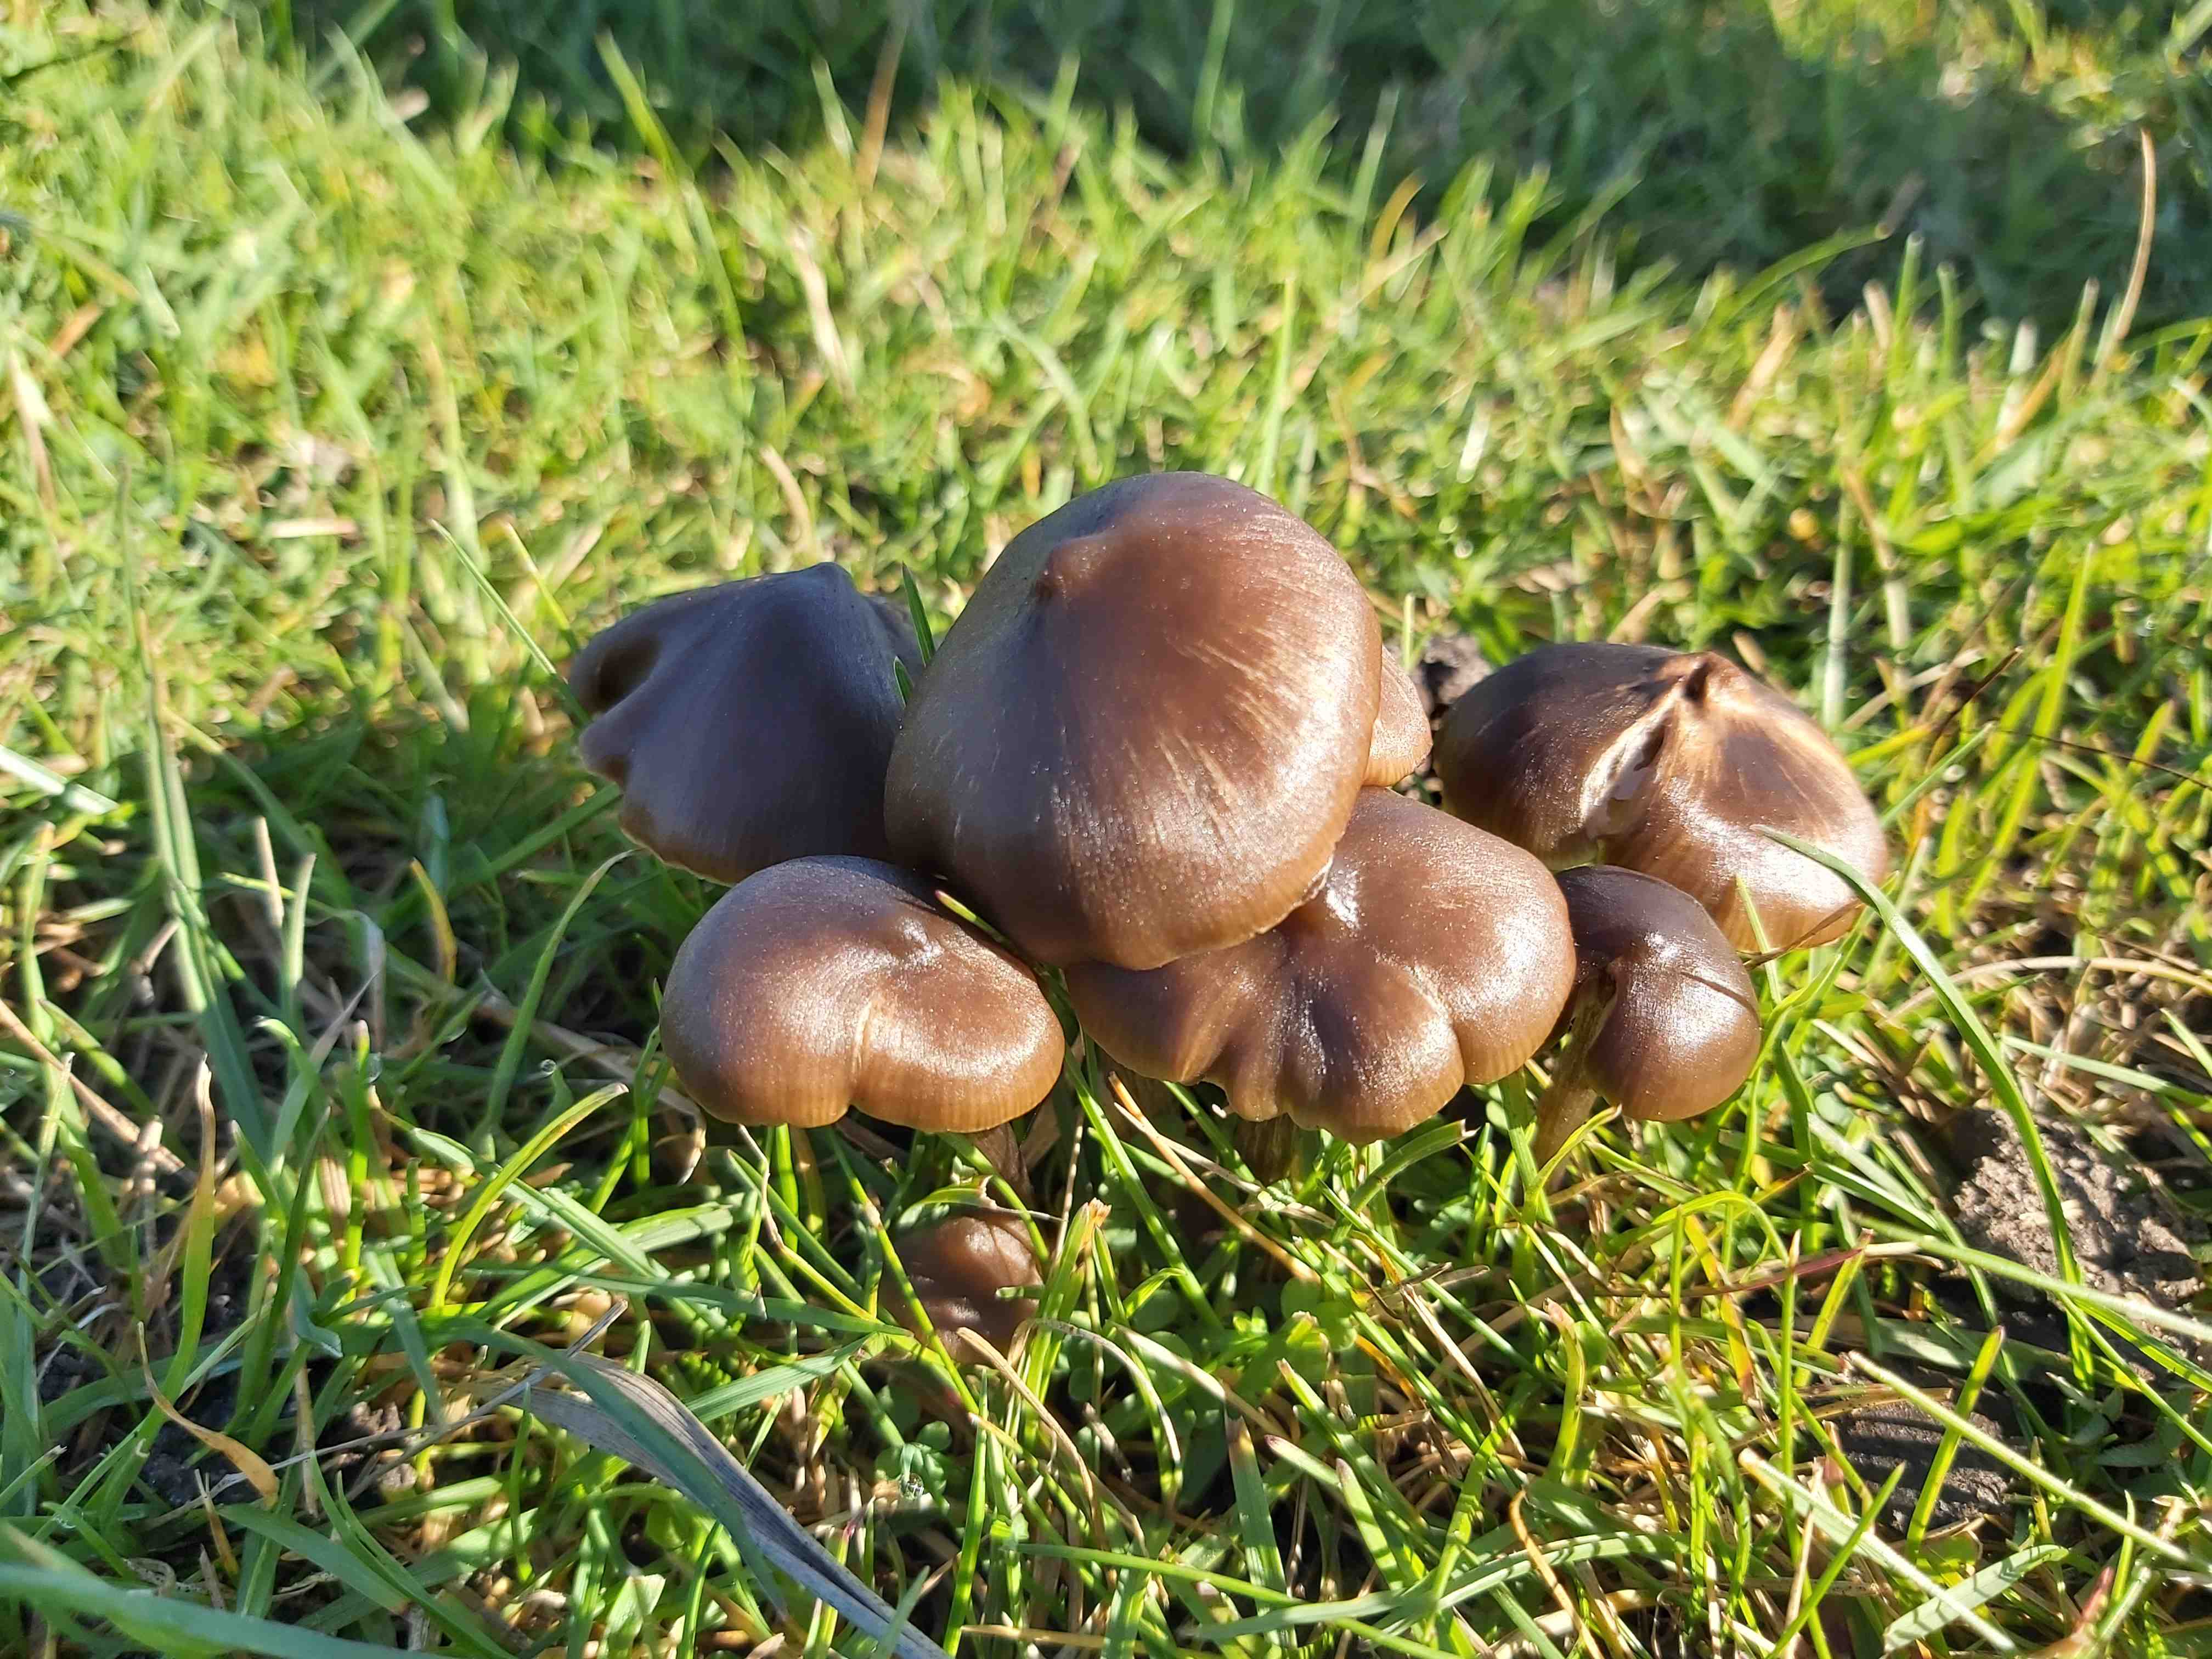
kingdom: Fungi
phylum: Basidiomycota
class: Agaricomycetes
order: Agaricales
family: Entolomataceae
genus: Entoloma
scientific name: Entoloma
